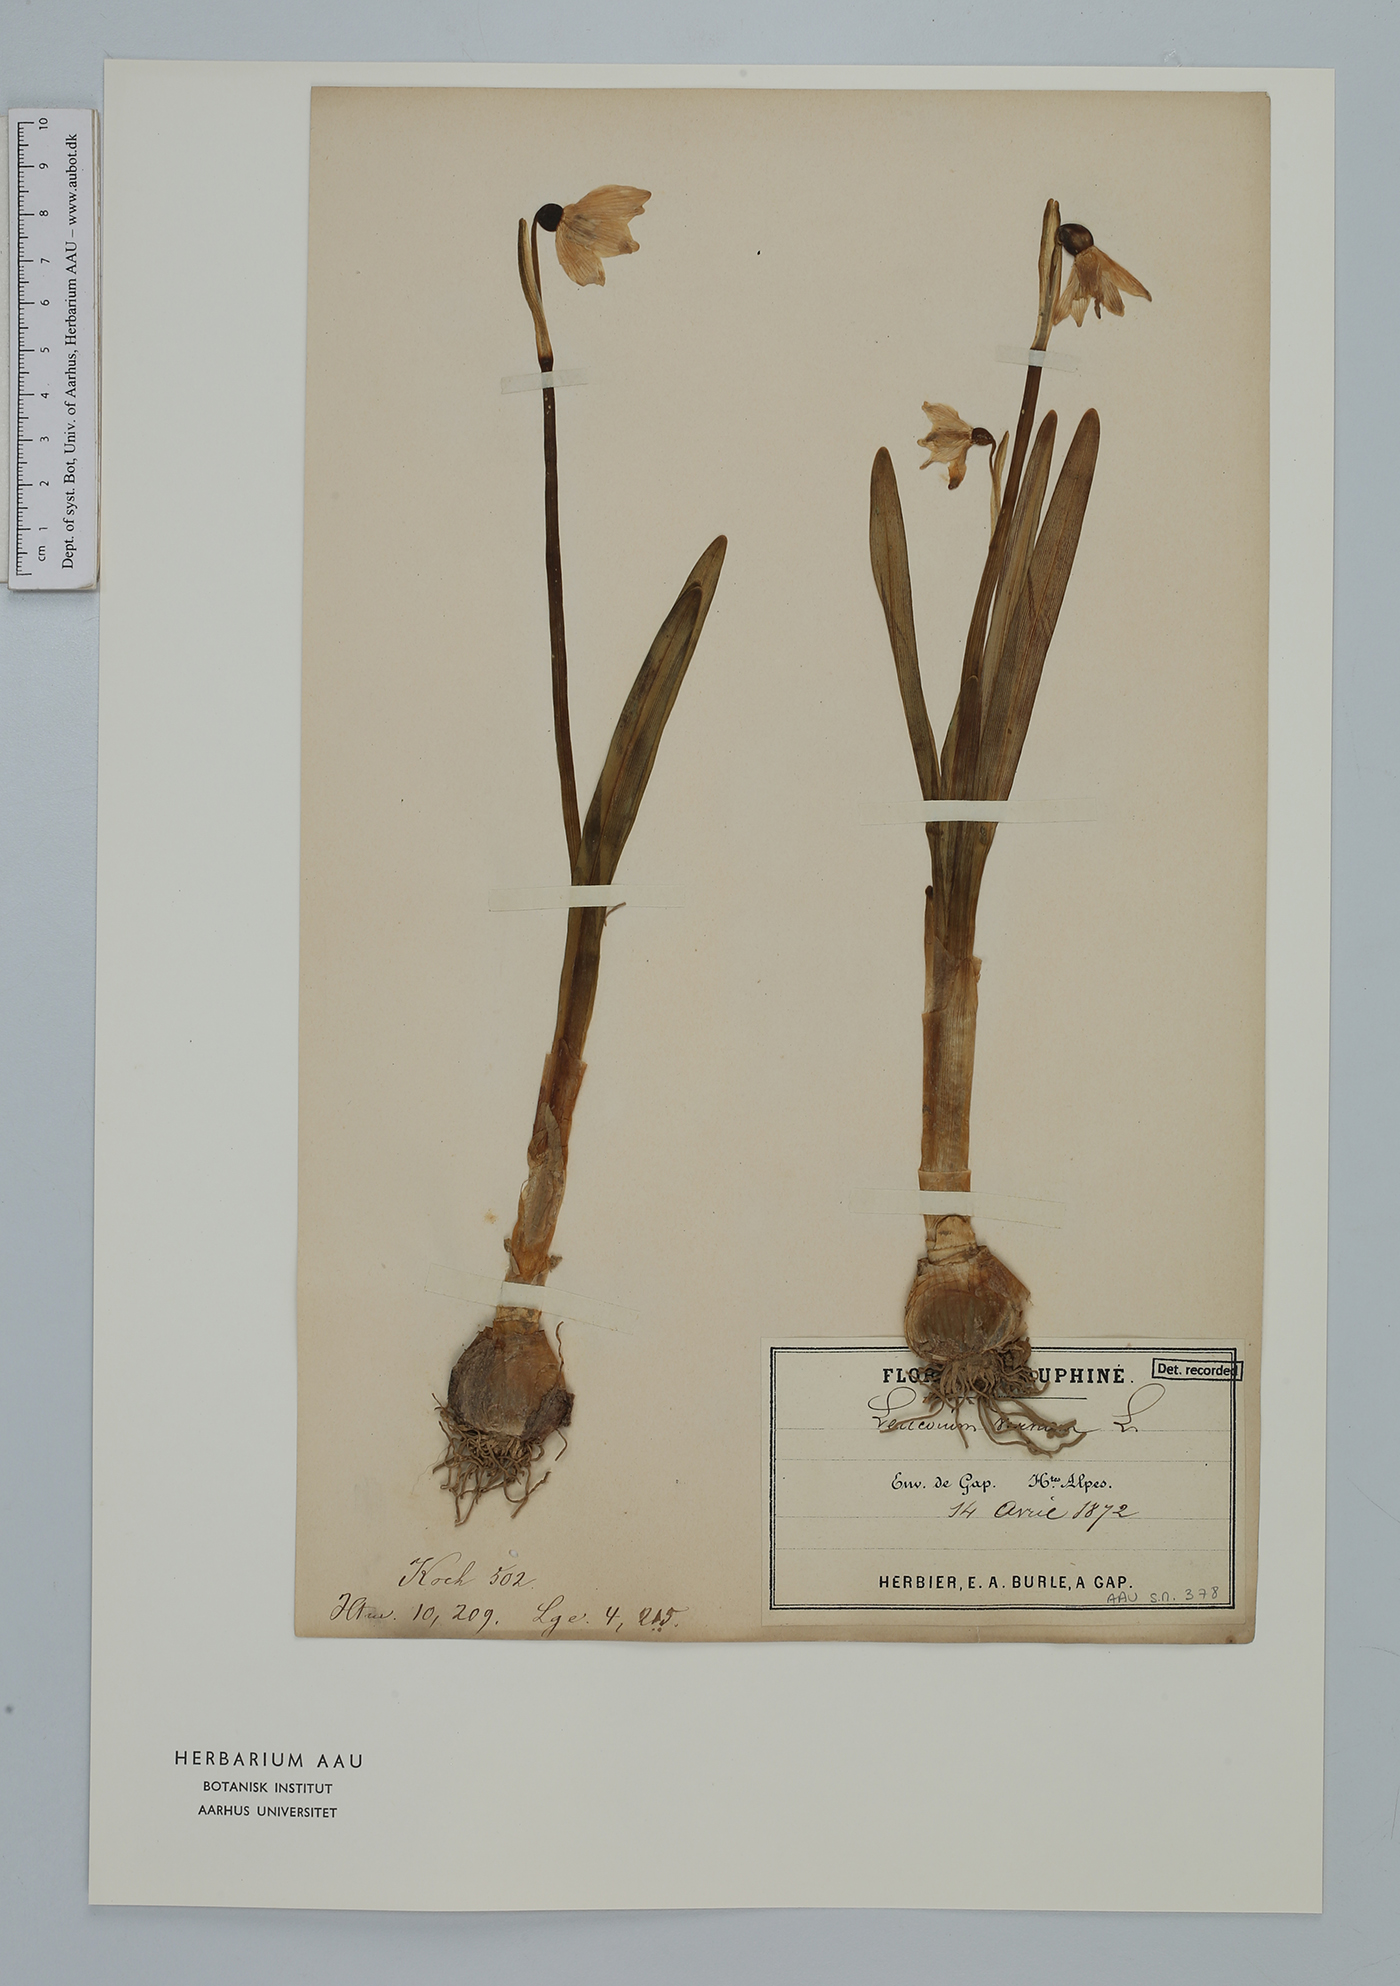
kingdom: Plantae
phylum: Tracheophyta
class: Liliopsida
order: Asparagales
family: Amaryllidaceae
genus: Leucojum
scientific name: Leucojum vernum
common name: Spring snowflake
